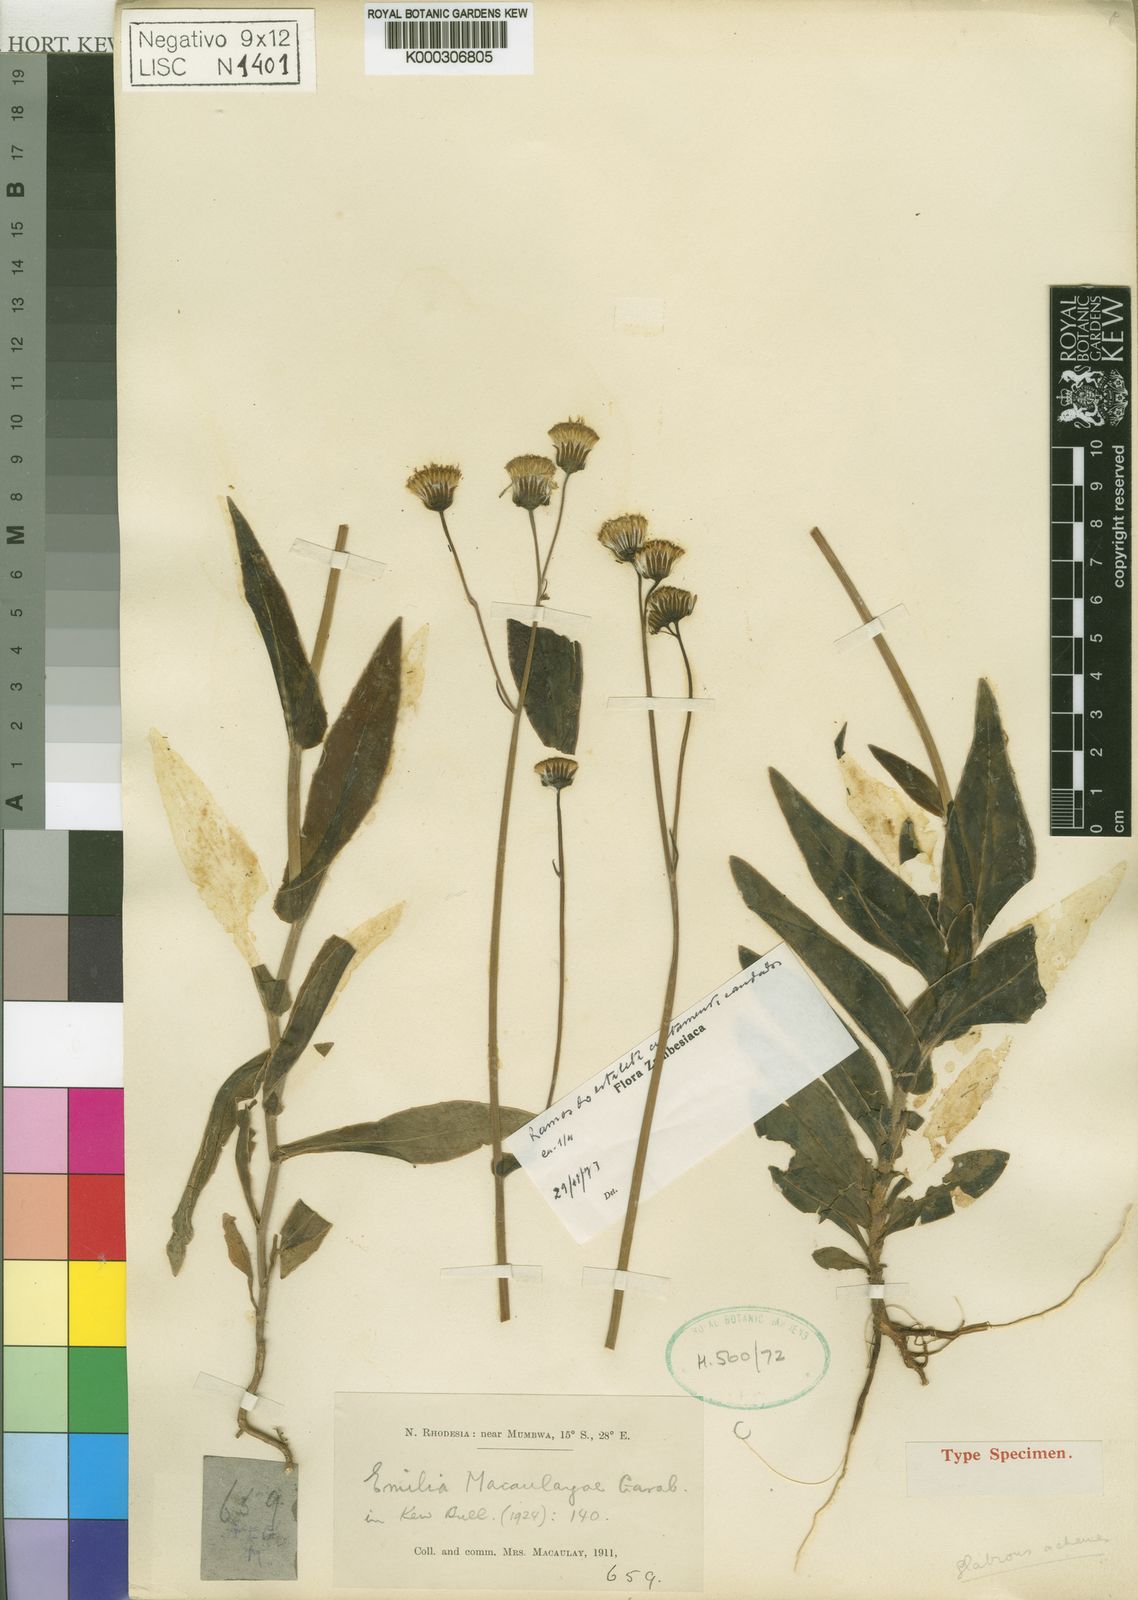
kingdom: Plantae
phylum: Tracheophyta
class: Magnoliopsida
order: Asterales
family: Asteraceae
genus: Emilia
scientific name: Emilia coccinea
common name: Scarlet tasselflower
